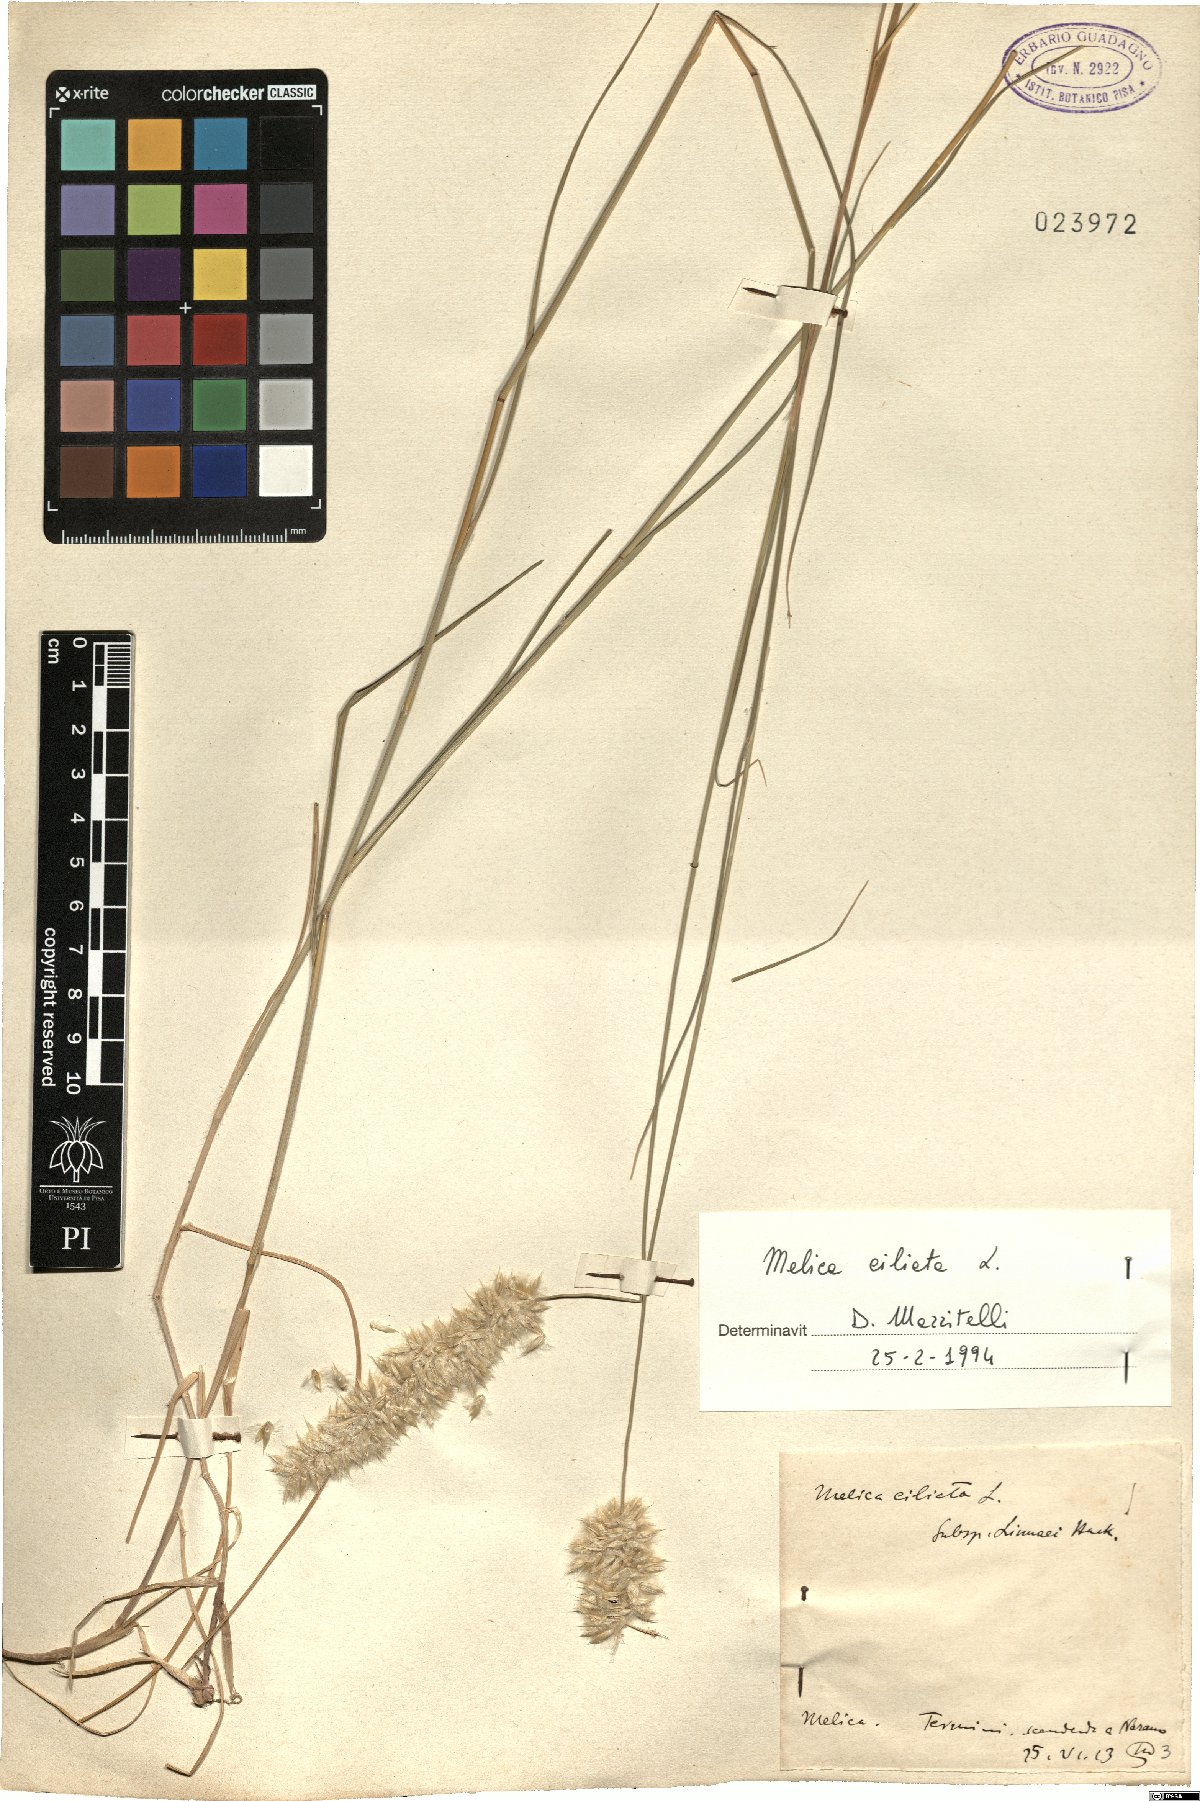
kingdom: Plantae
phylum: Tracheophyta
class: Liliopsida
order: Poales
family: Poaceae
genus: Melica
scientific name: Melica ciliata
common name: Hairy melicgrass
